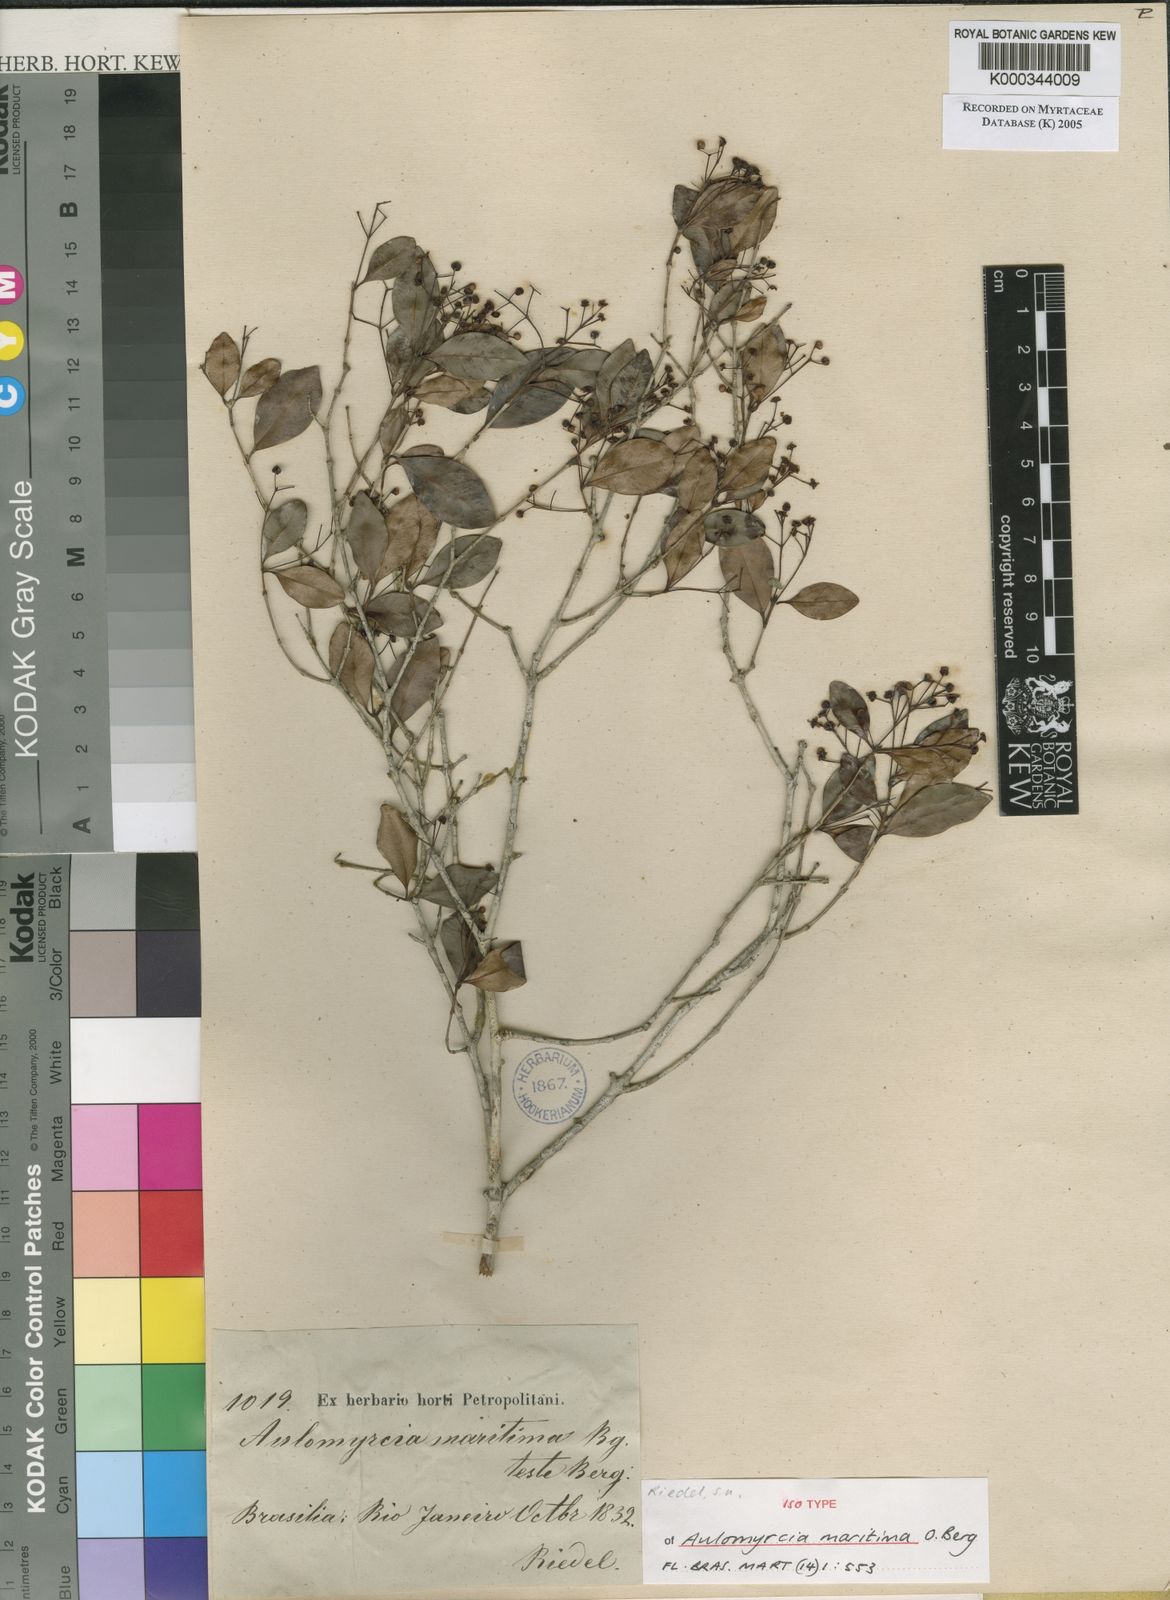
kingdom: Plantae
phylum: Tracheophyta
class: Magnoliopsida
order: Myrtales
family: Myrtaceae
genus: Myrcia
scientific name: Myrcia guianensis
